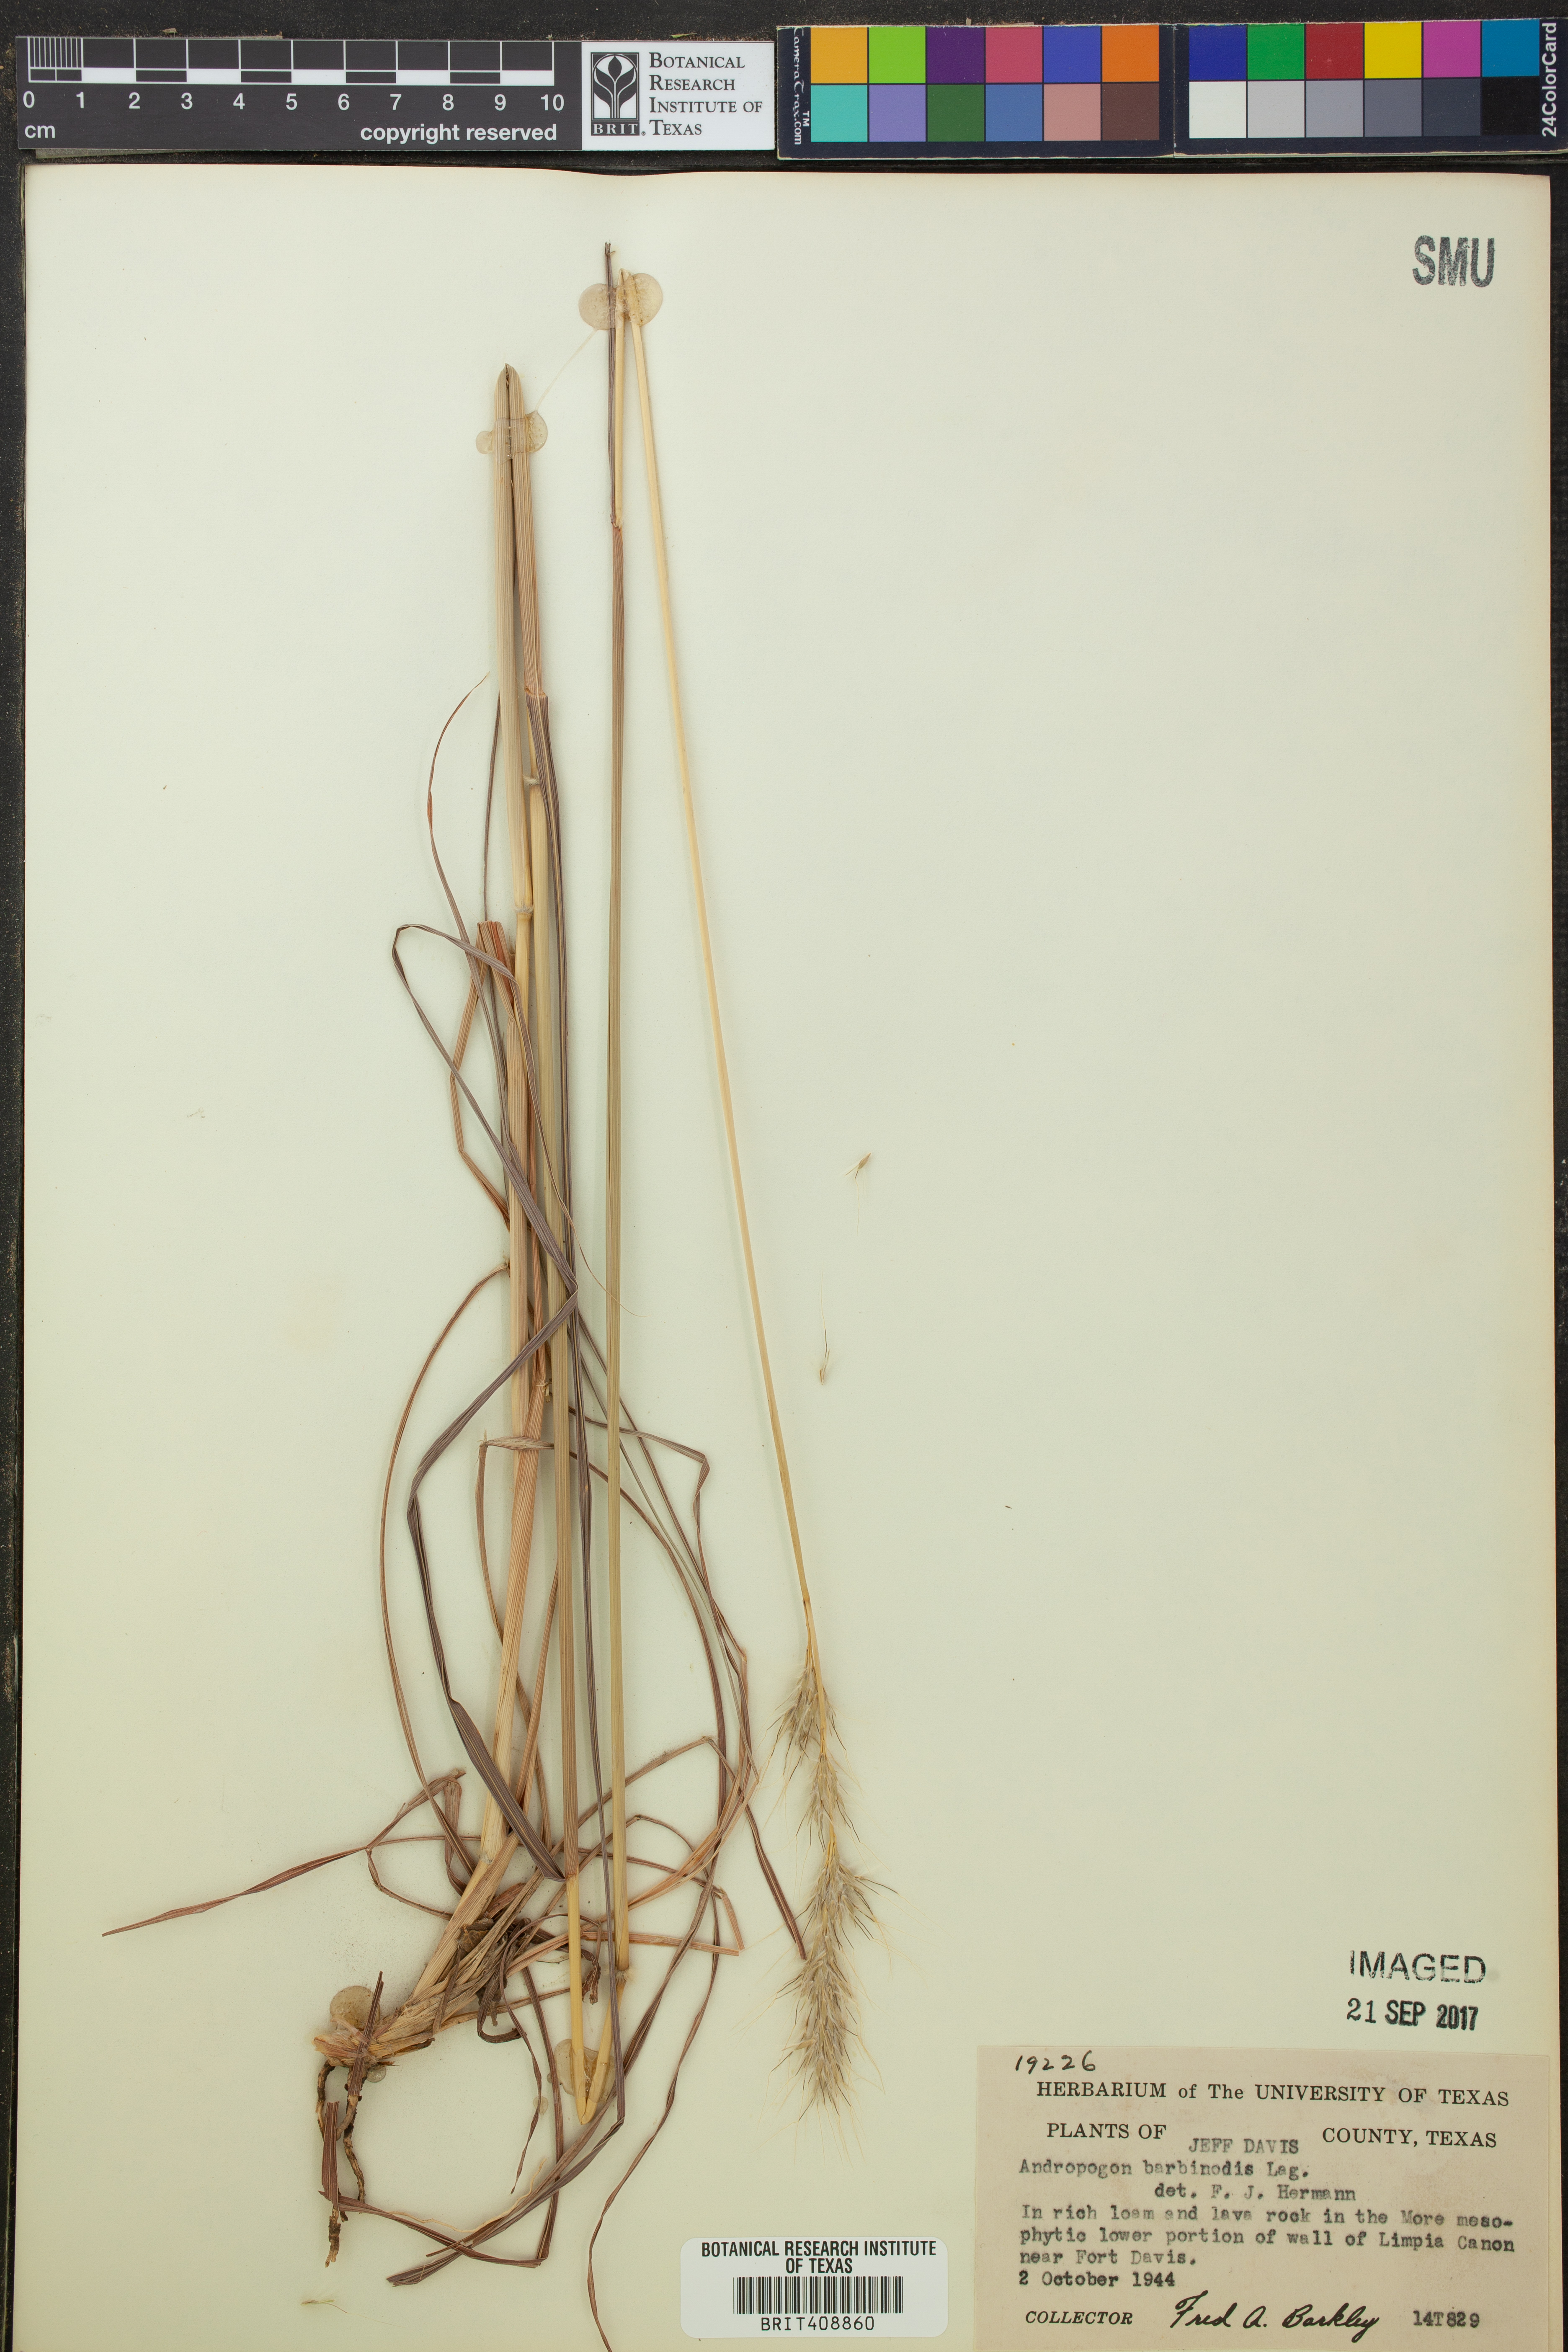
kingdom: Plantae
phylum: Tracheophyta
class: Liliopsida
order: Poales
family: Poaceae
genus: Bothriochloa
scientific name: Bothriochloa barbinodis
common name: Cane bluestem
